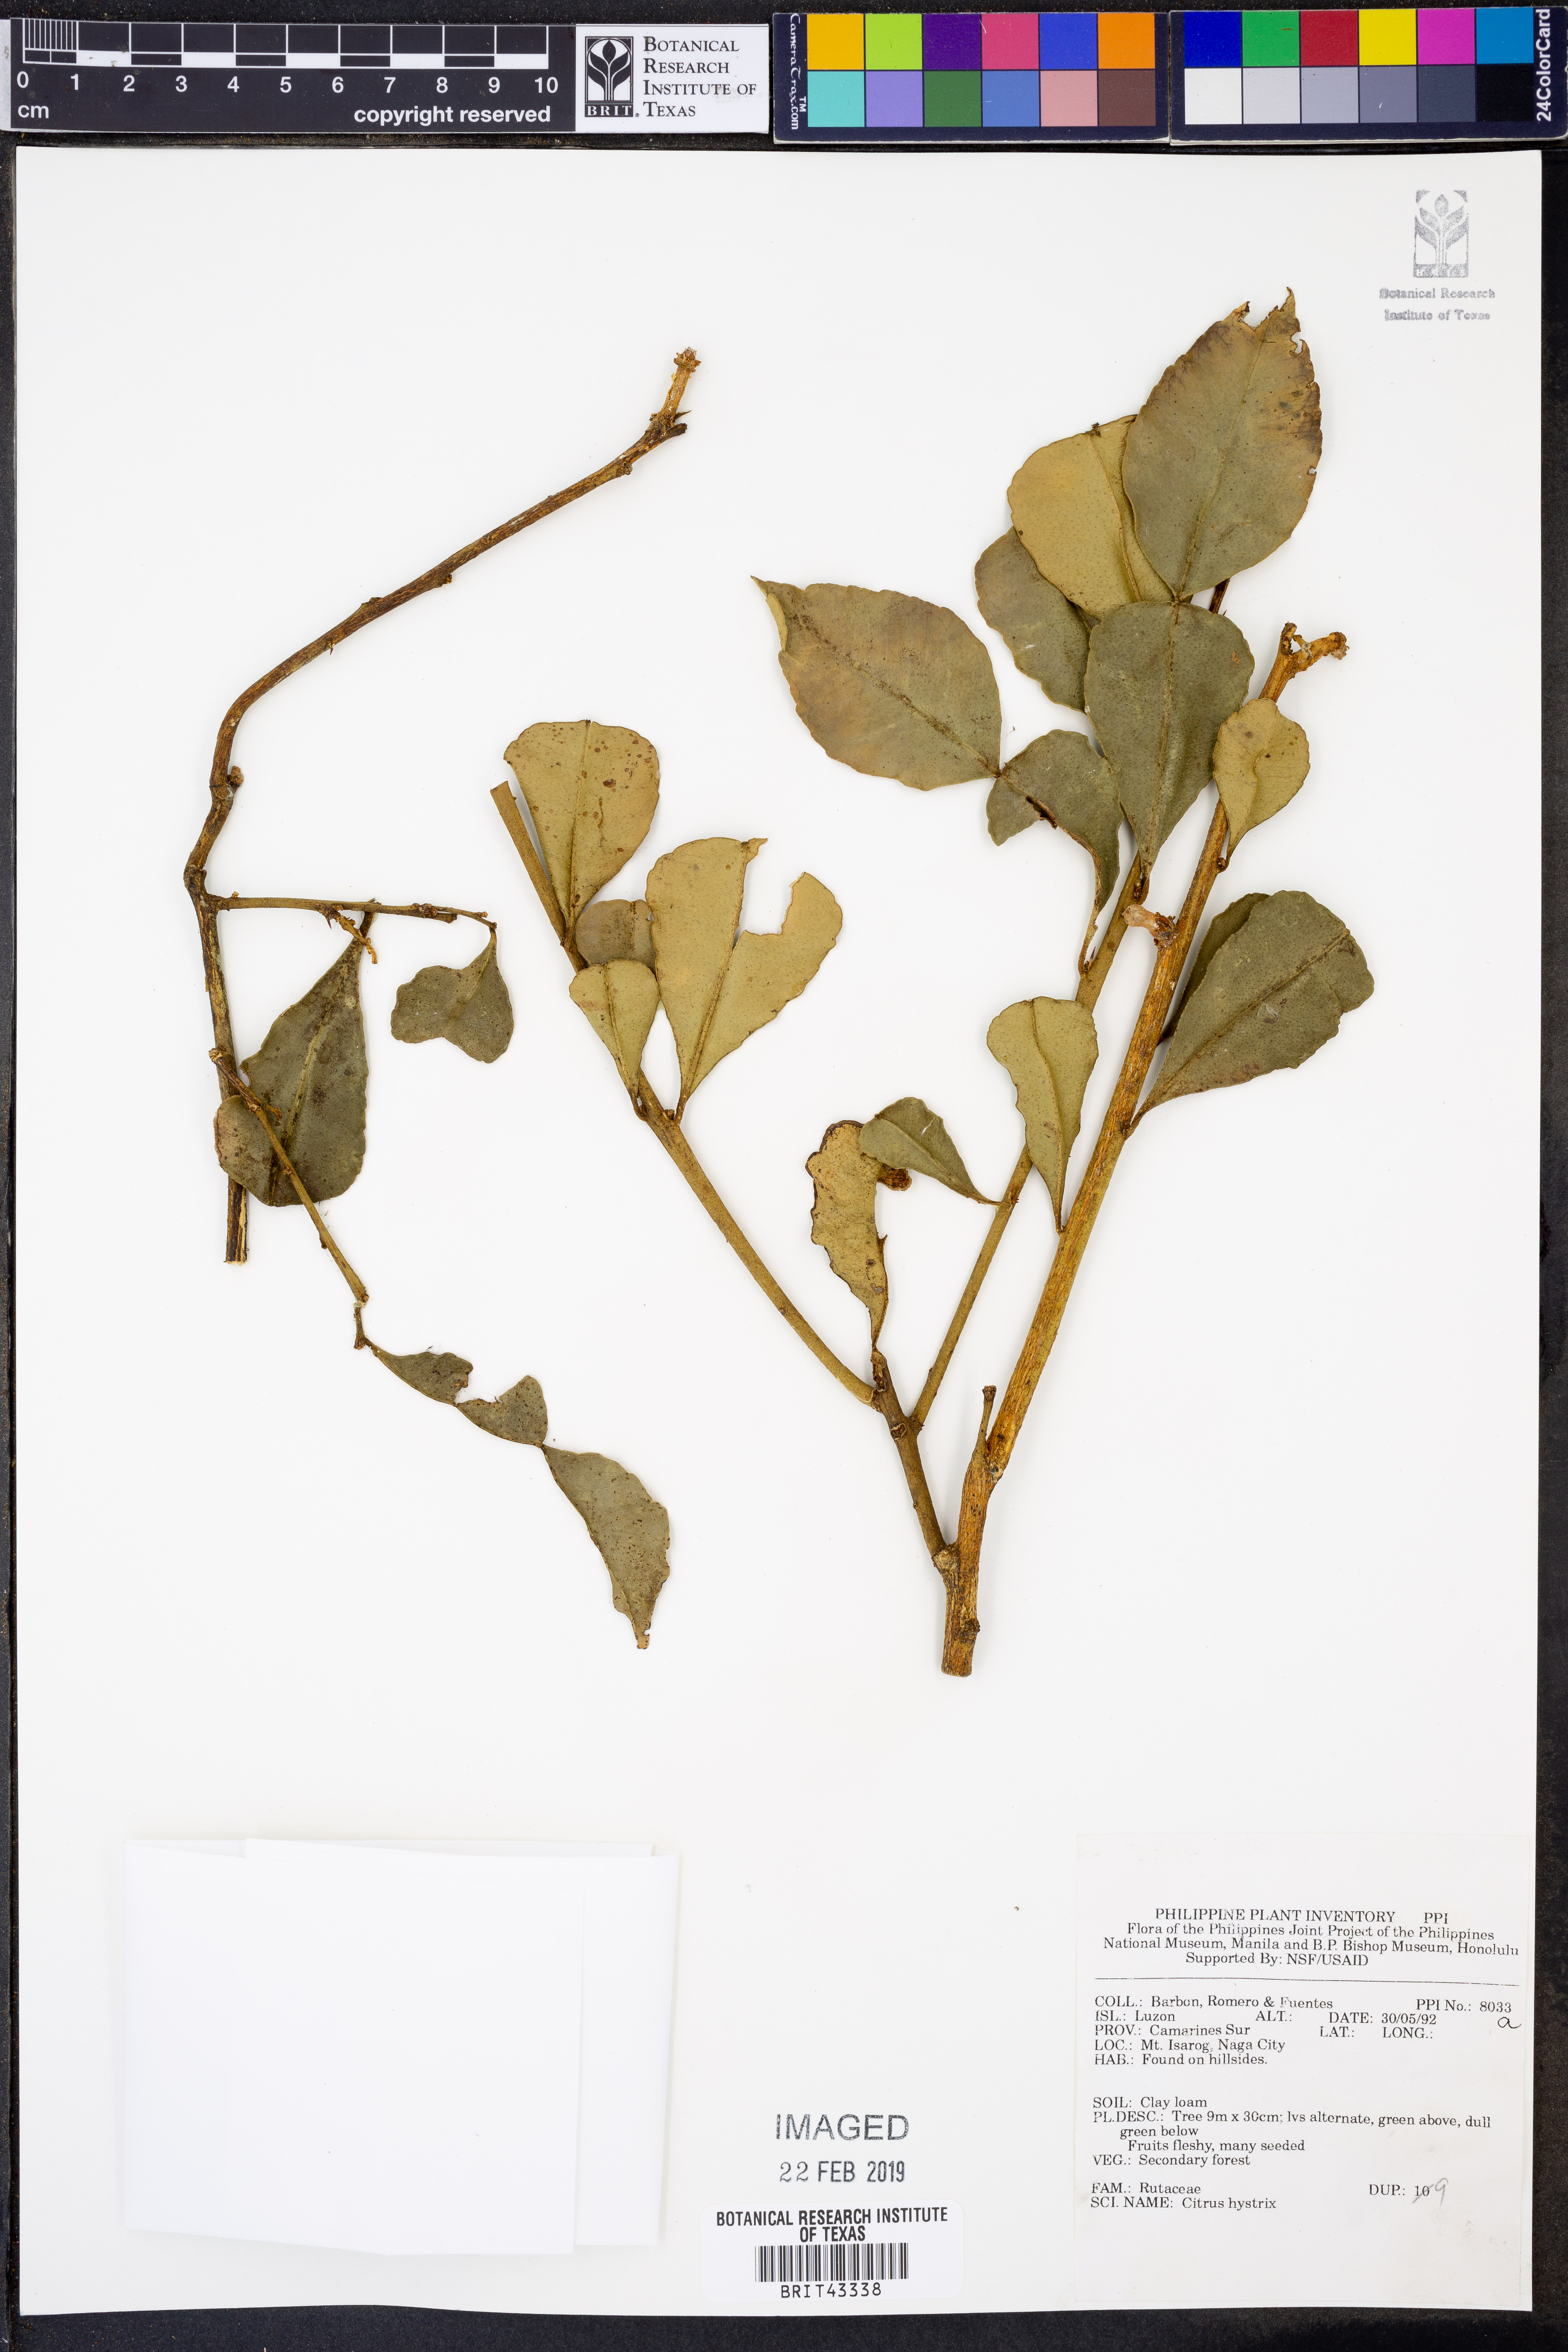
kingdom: Plantae
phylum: Tracheophyta
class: Magnoliopsida
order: Sapindales
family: Rutaceae
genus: Citrus
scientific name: Citrus hystrix
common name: Kaffir-lime
